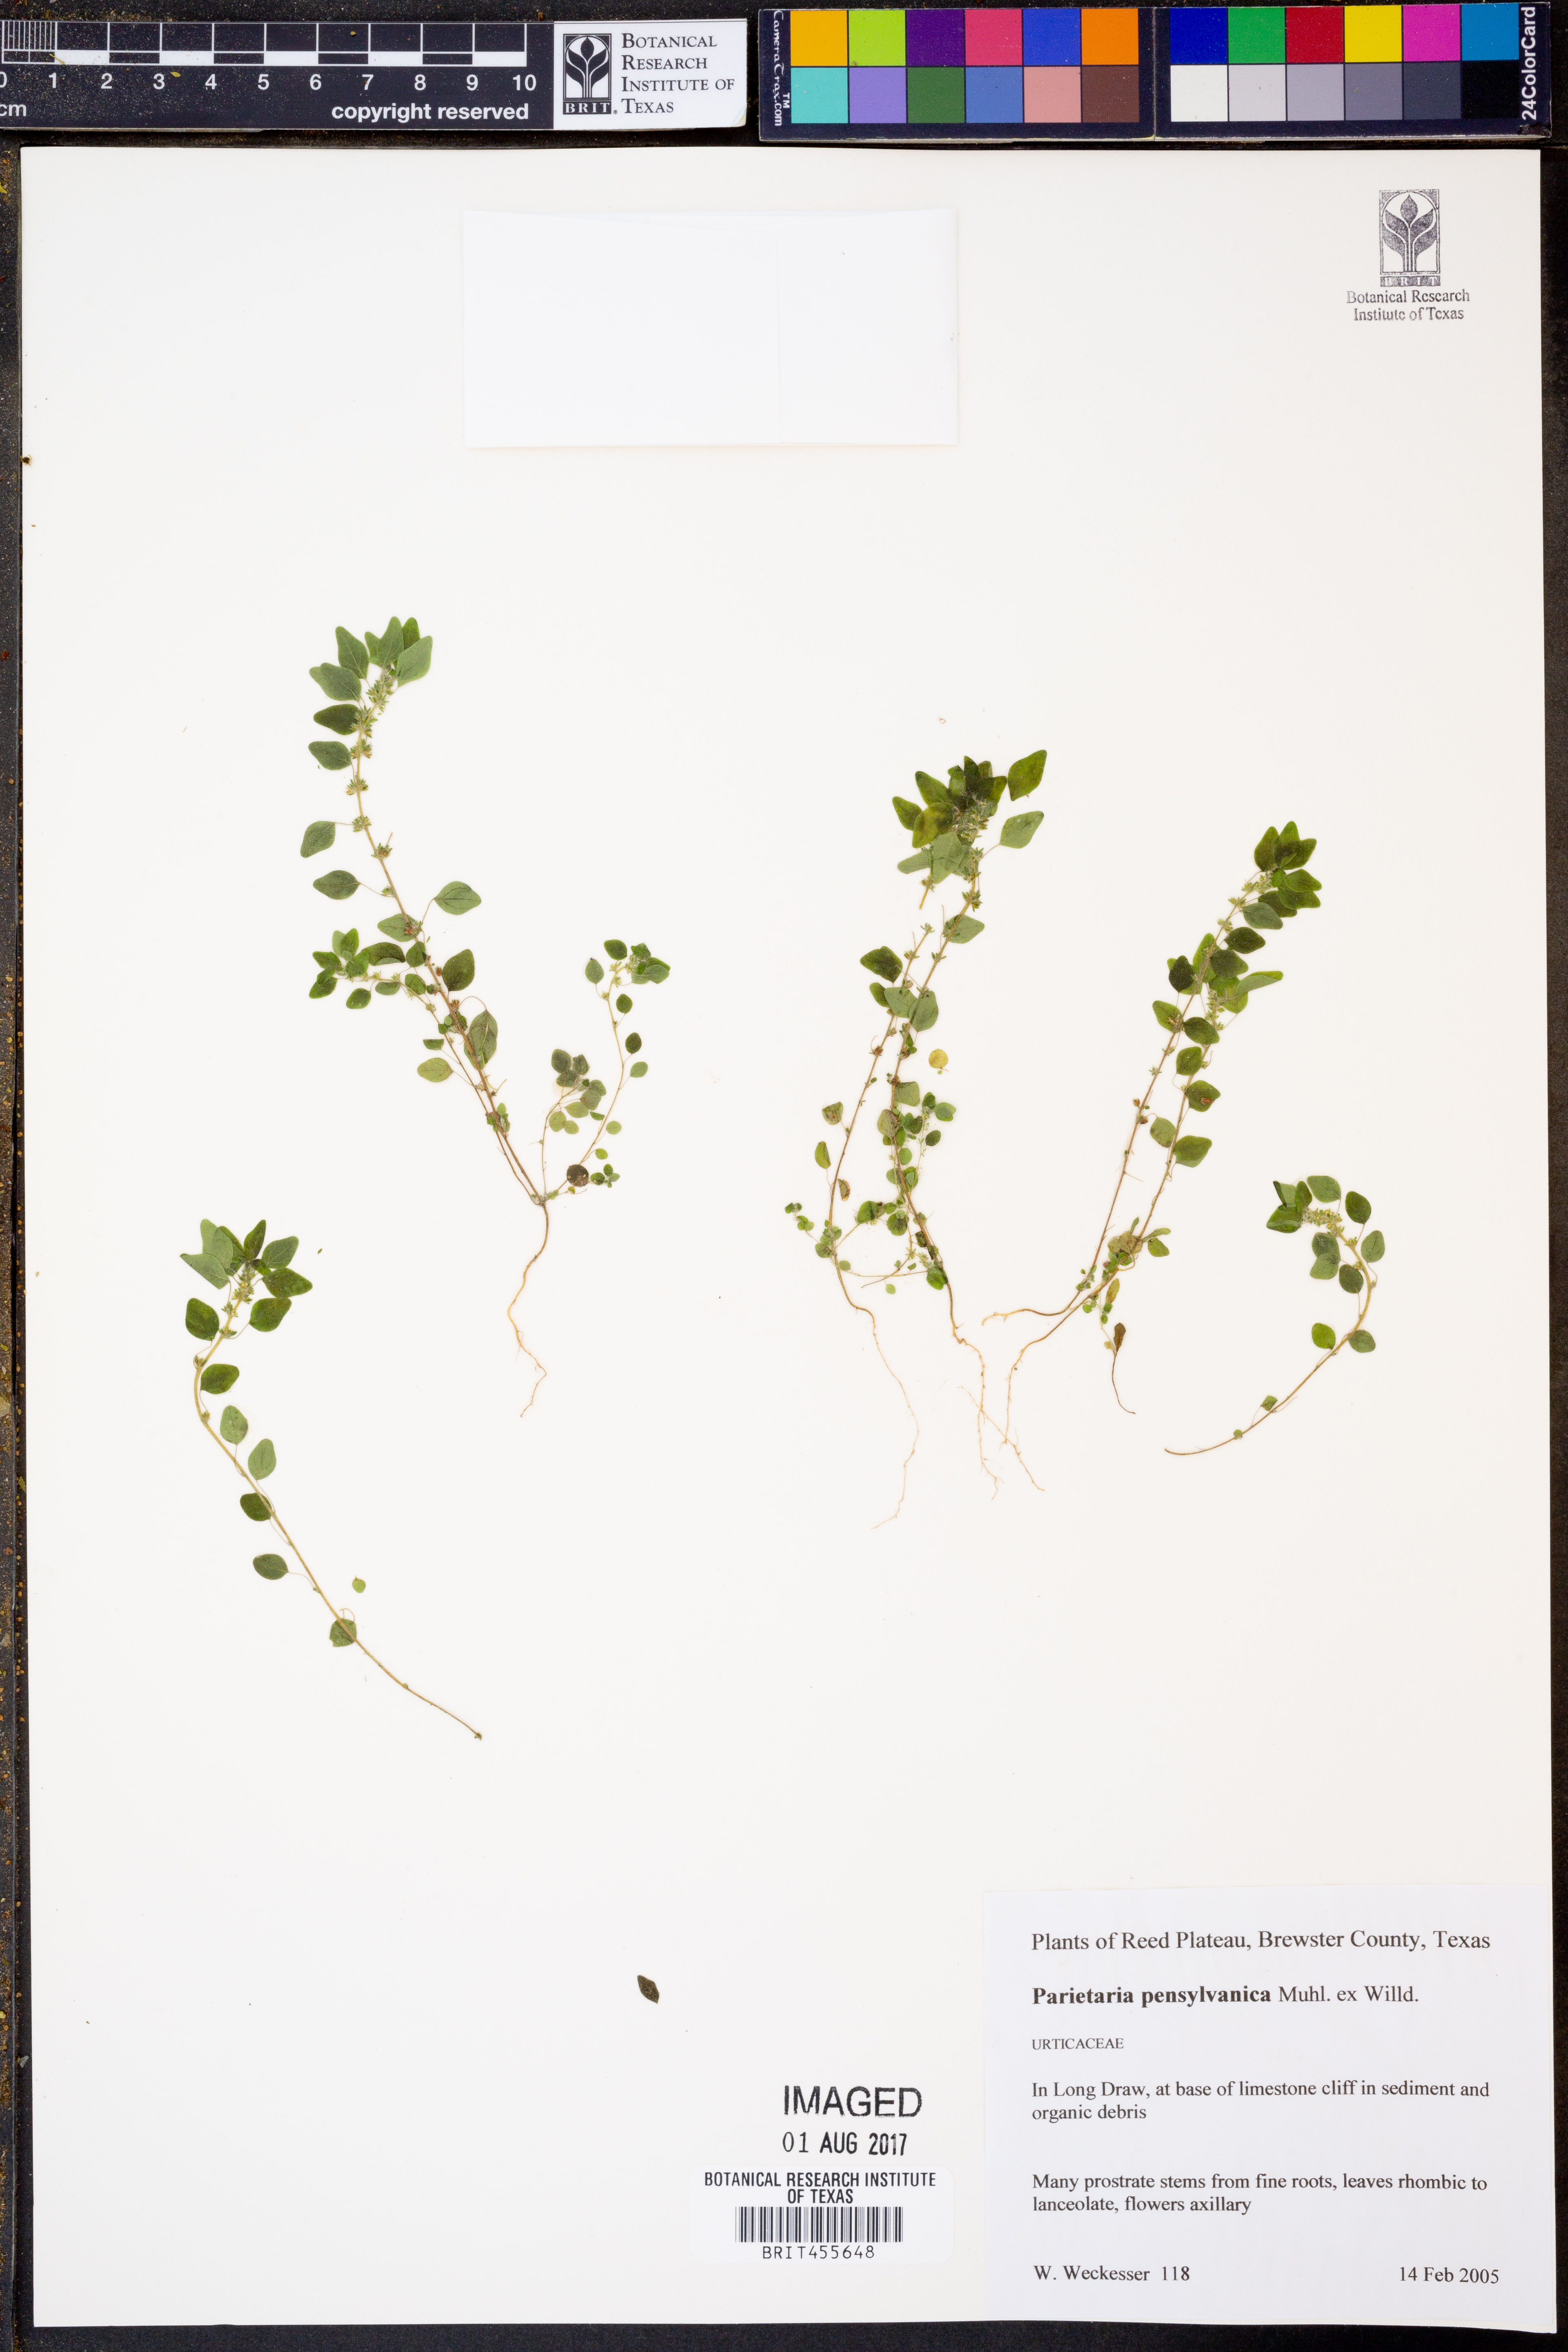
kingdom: Plantae
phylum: Tracheophyta
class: Magnoliopsida
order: Rosales
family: Urticaceae
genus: Parietaria
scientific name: Parietaria pensylvanica
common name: Pennsylvania pellitory
